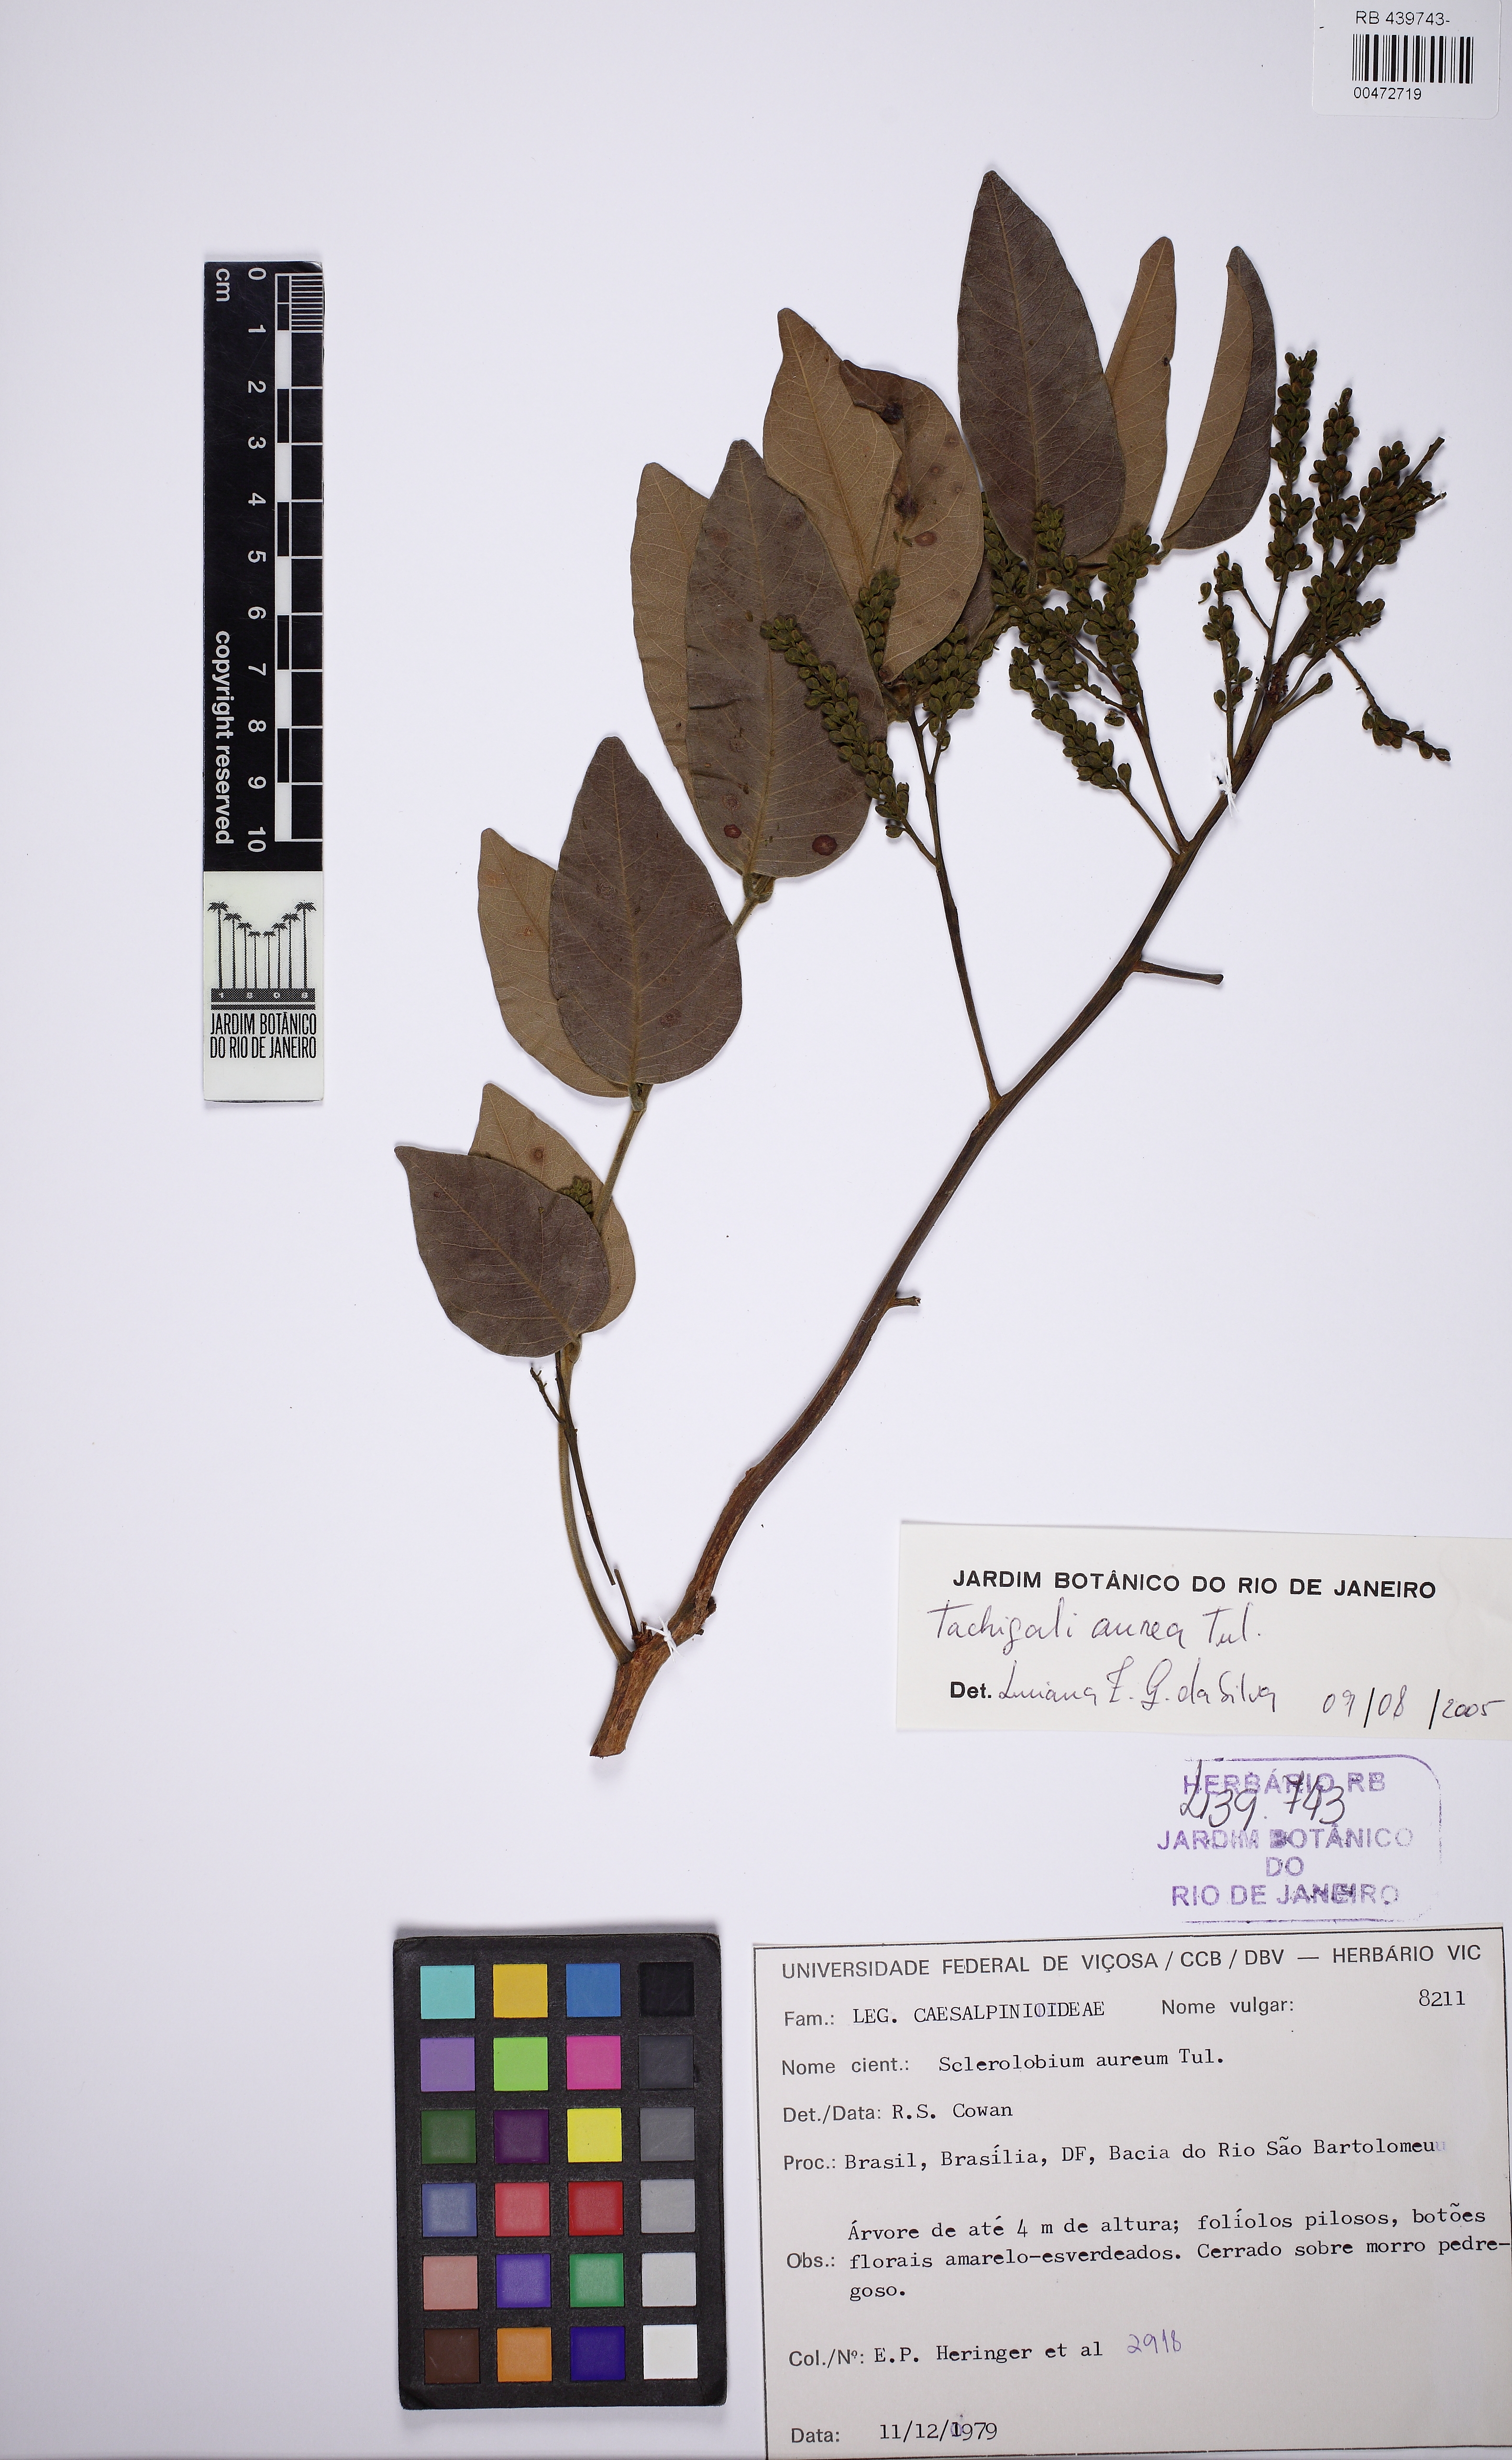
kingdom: Plantae
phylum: Tracheophyta
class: Magnoliopsida
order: Fabales
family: Fabaceae
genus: Tachigali
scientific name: Tachigali aurea
